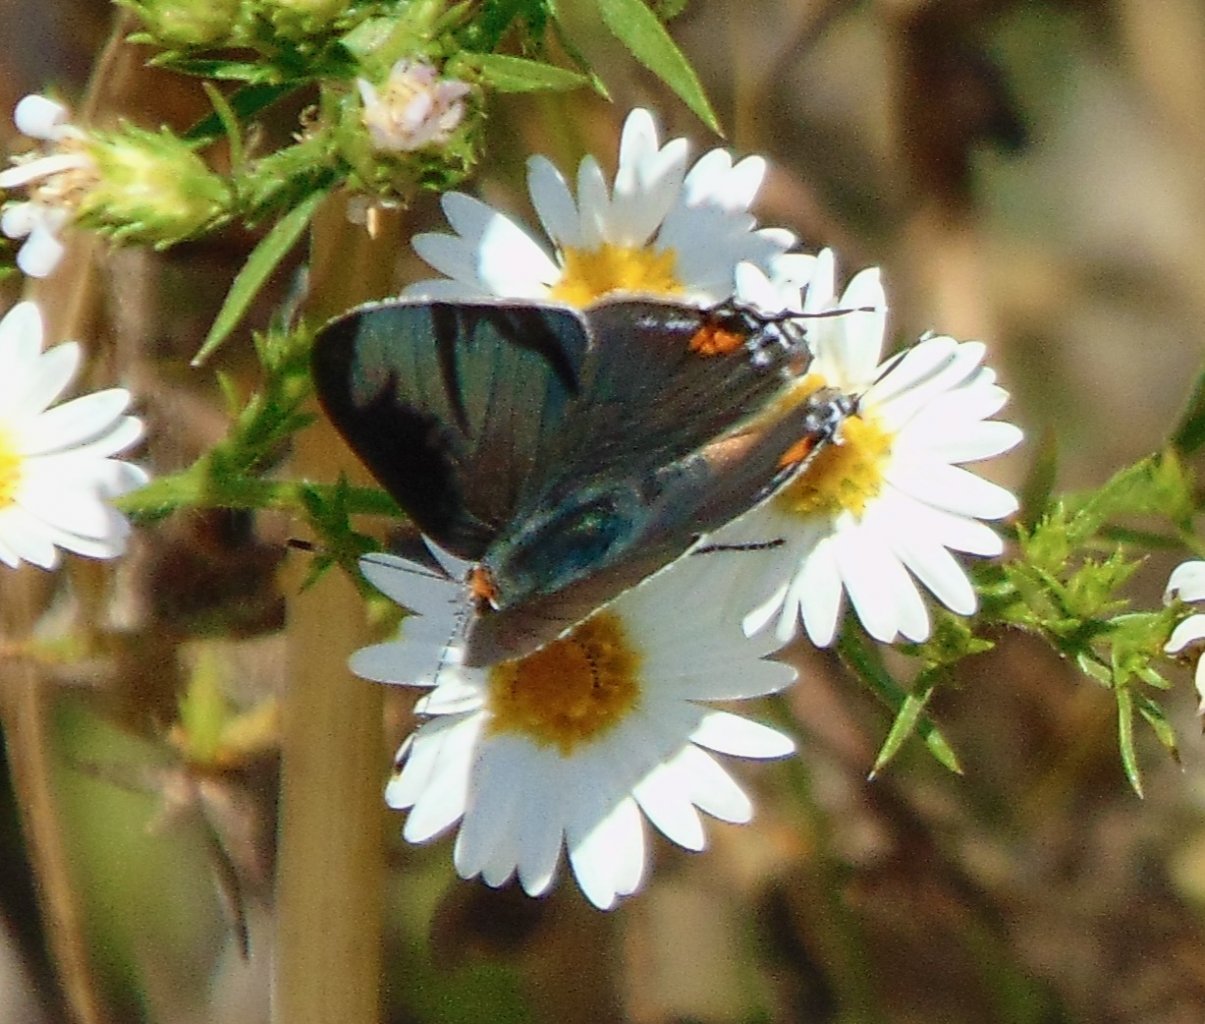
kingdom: Animalia
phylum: Arthropoda
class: Insecta
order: Lepidoptera
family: Lycaenidae
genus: Strymon
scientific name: Strymon melinus
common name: Gray Hairstreak
